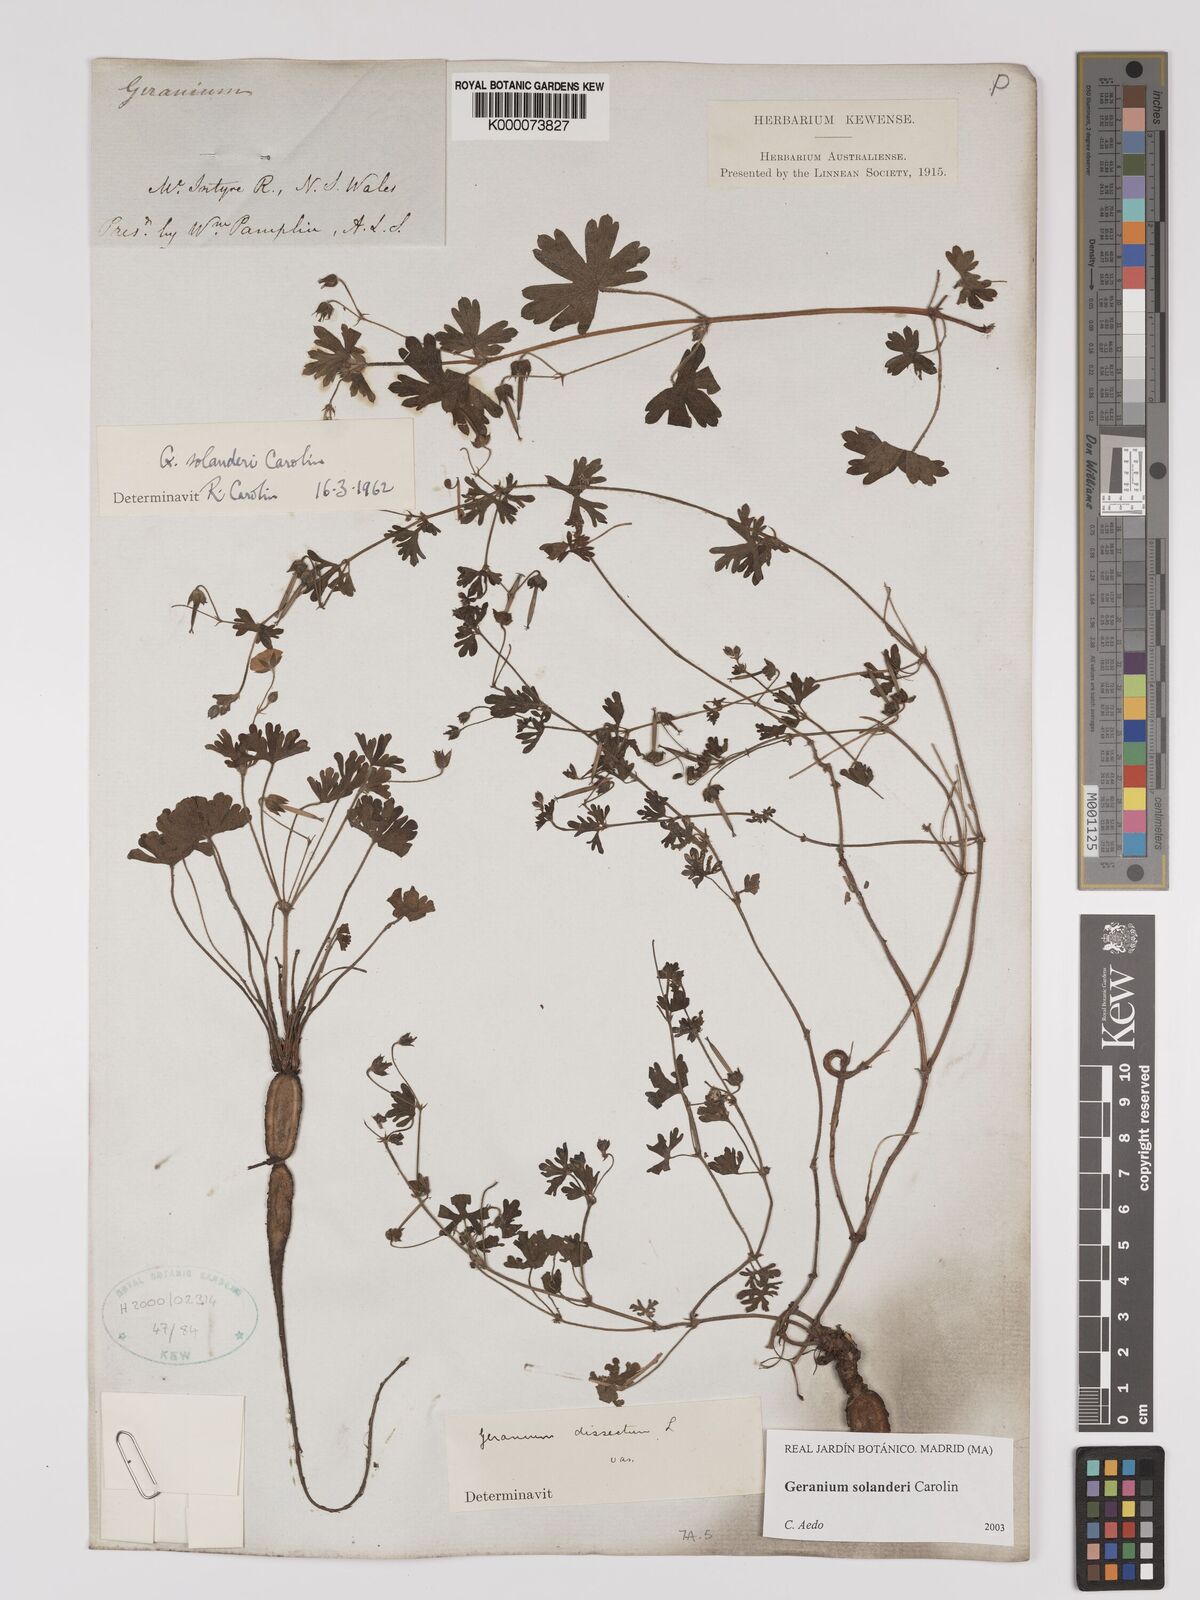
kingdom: Plantae
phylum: Tracheophyta
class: Magnoliopsida
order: Geraniales
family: Geraniaceae
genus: Geranium
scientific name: Geranium solanderi
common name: Solander's geranium
